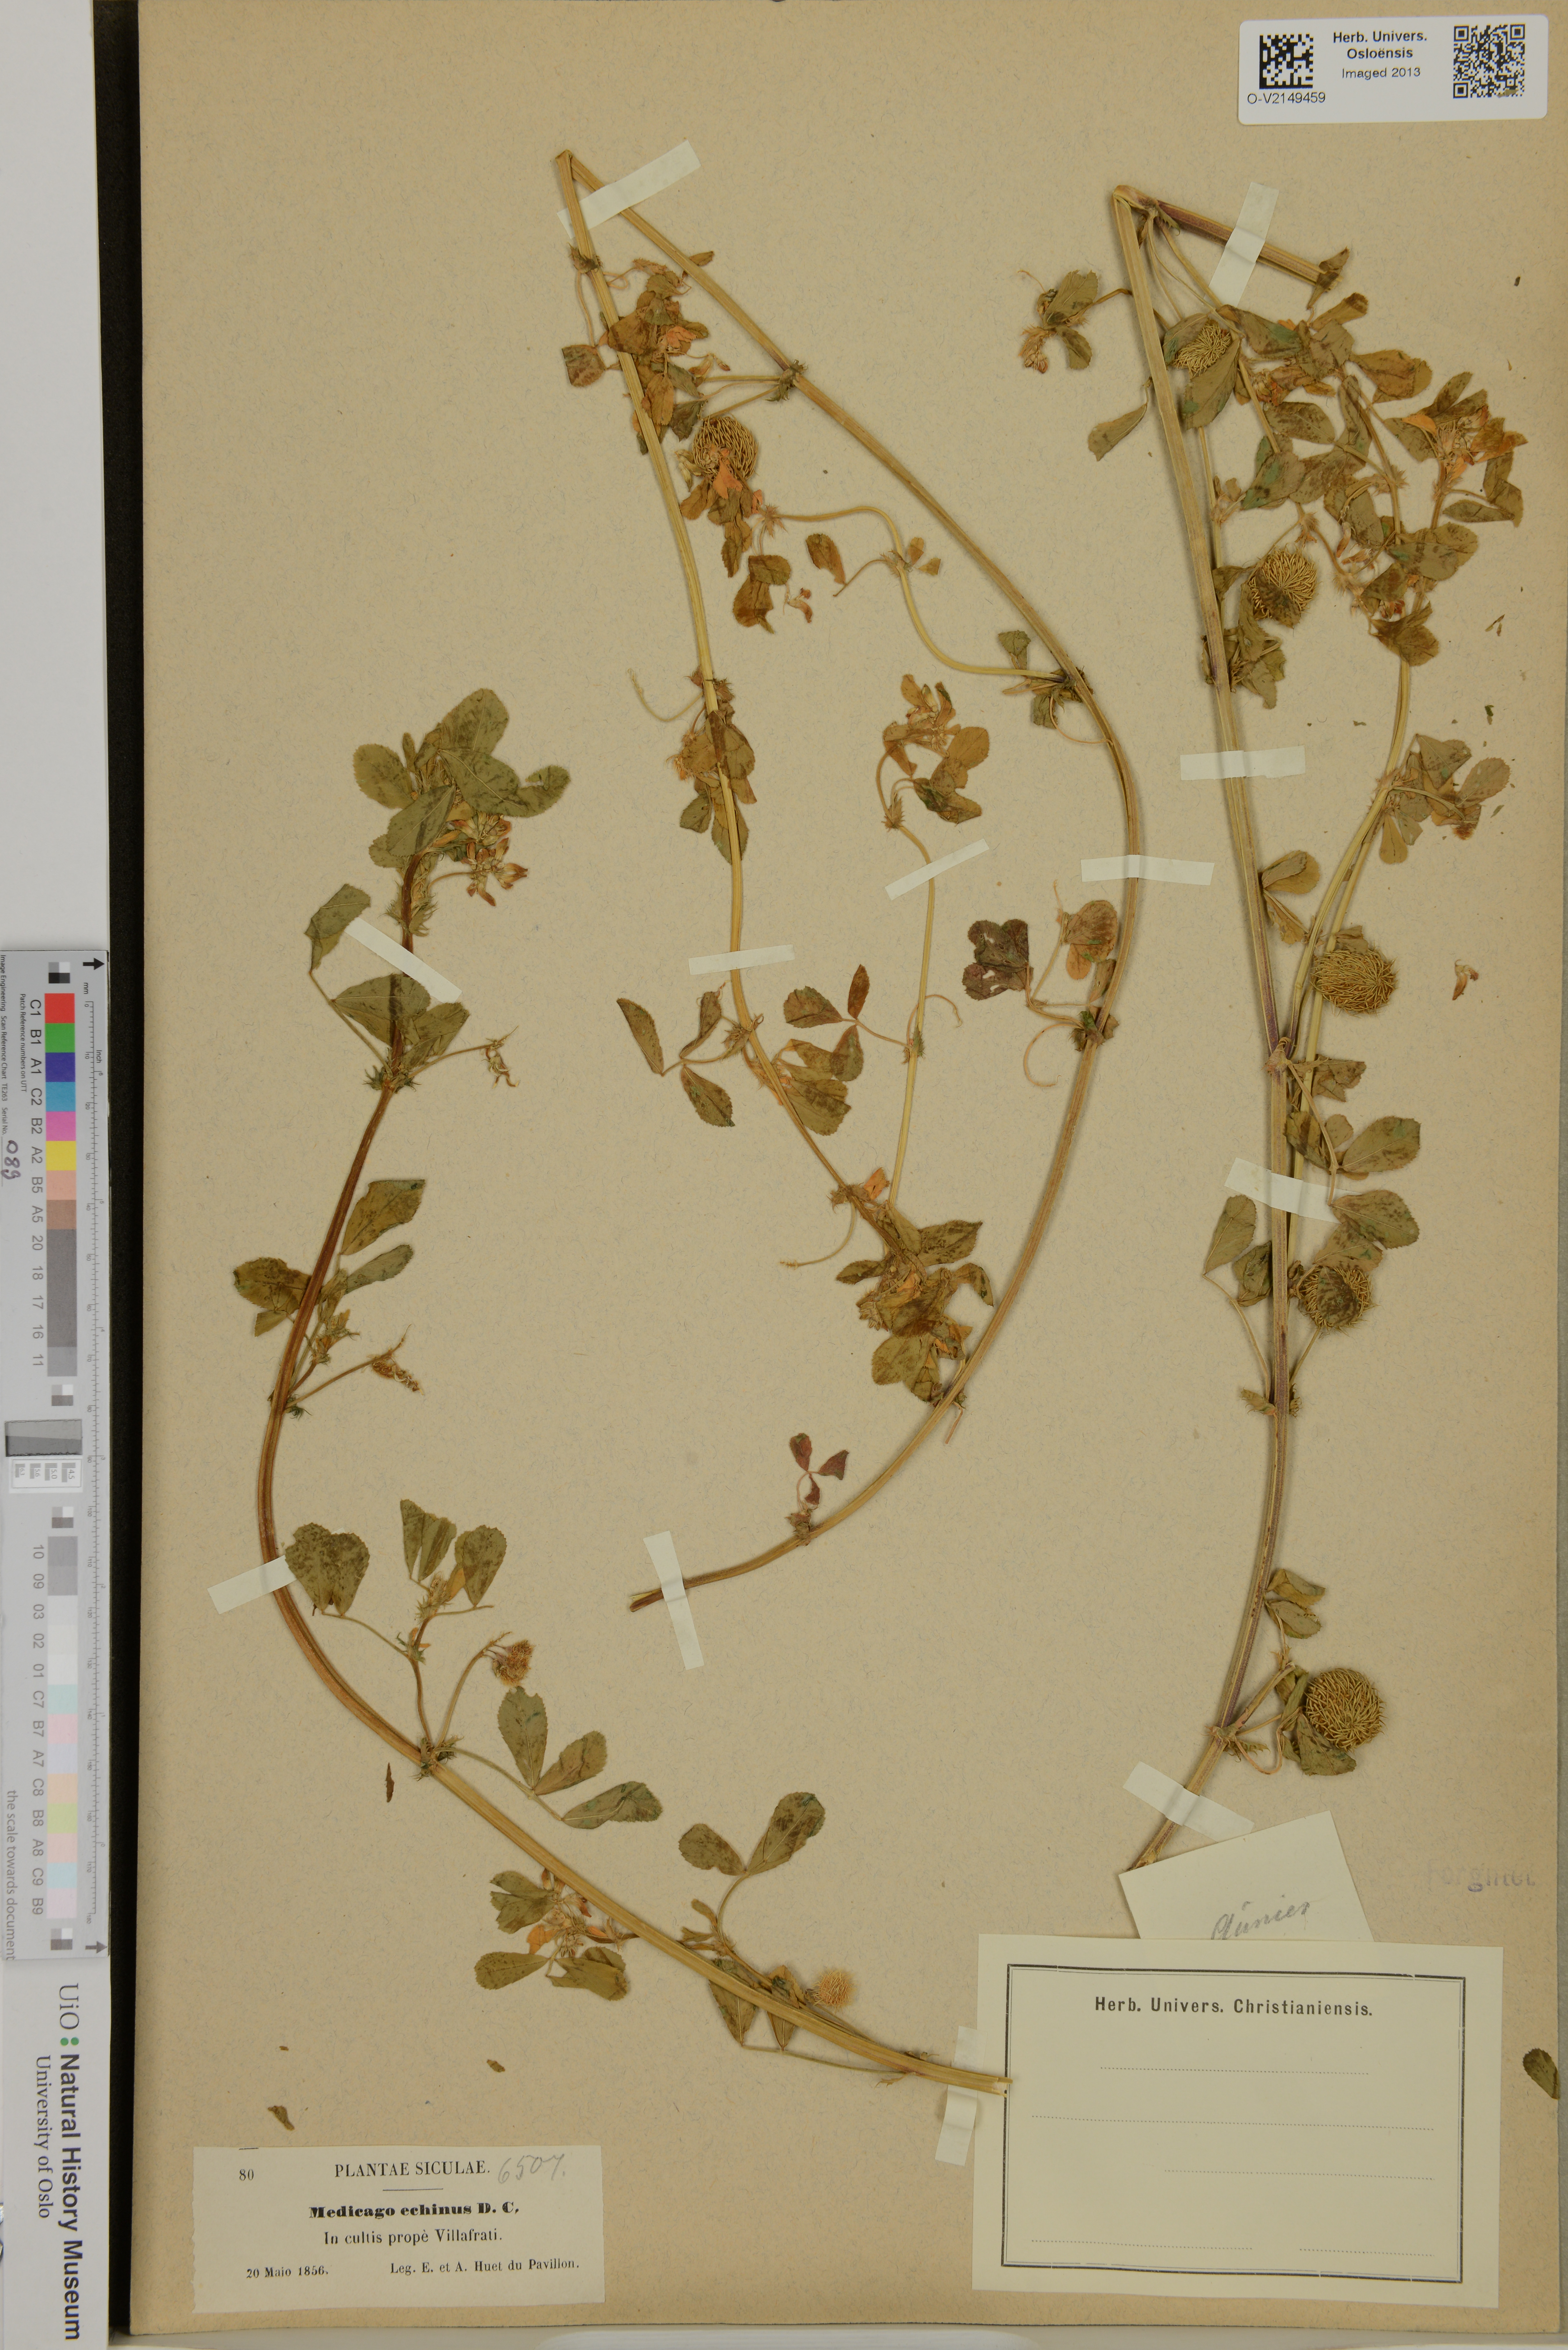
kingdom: Plantae
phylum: Tracheophyta
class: Magnoliopsida
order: Fabales
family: Fabaceae
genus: Medicago
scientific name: Medicago intertexta
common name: Hedgehog medick
